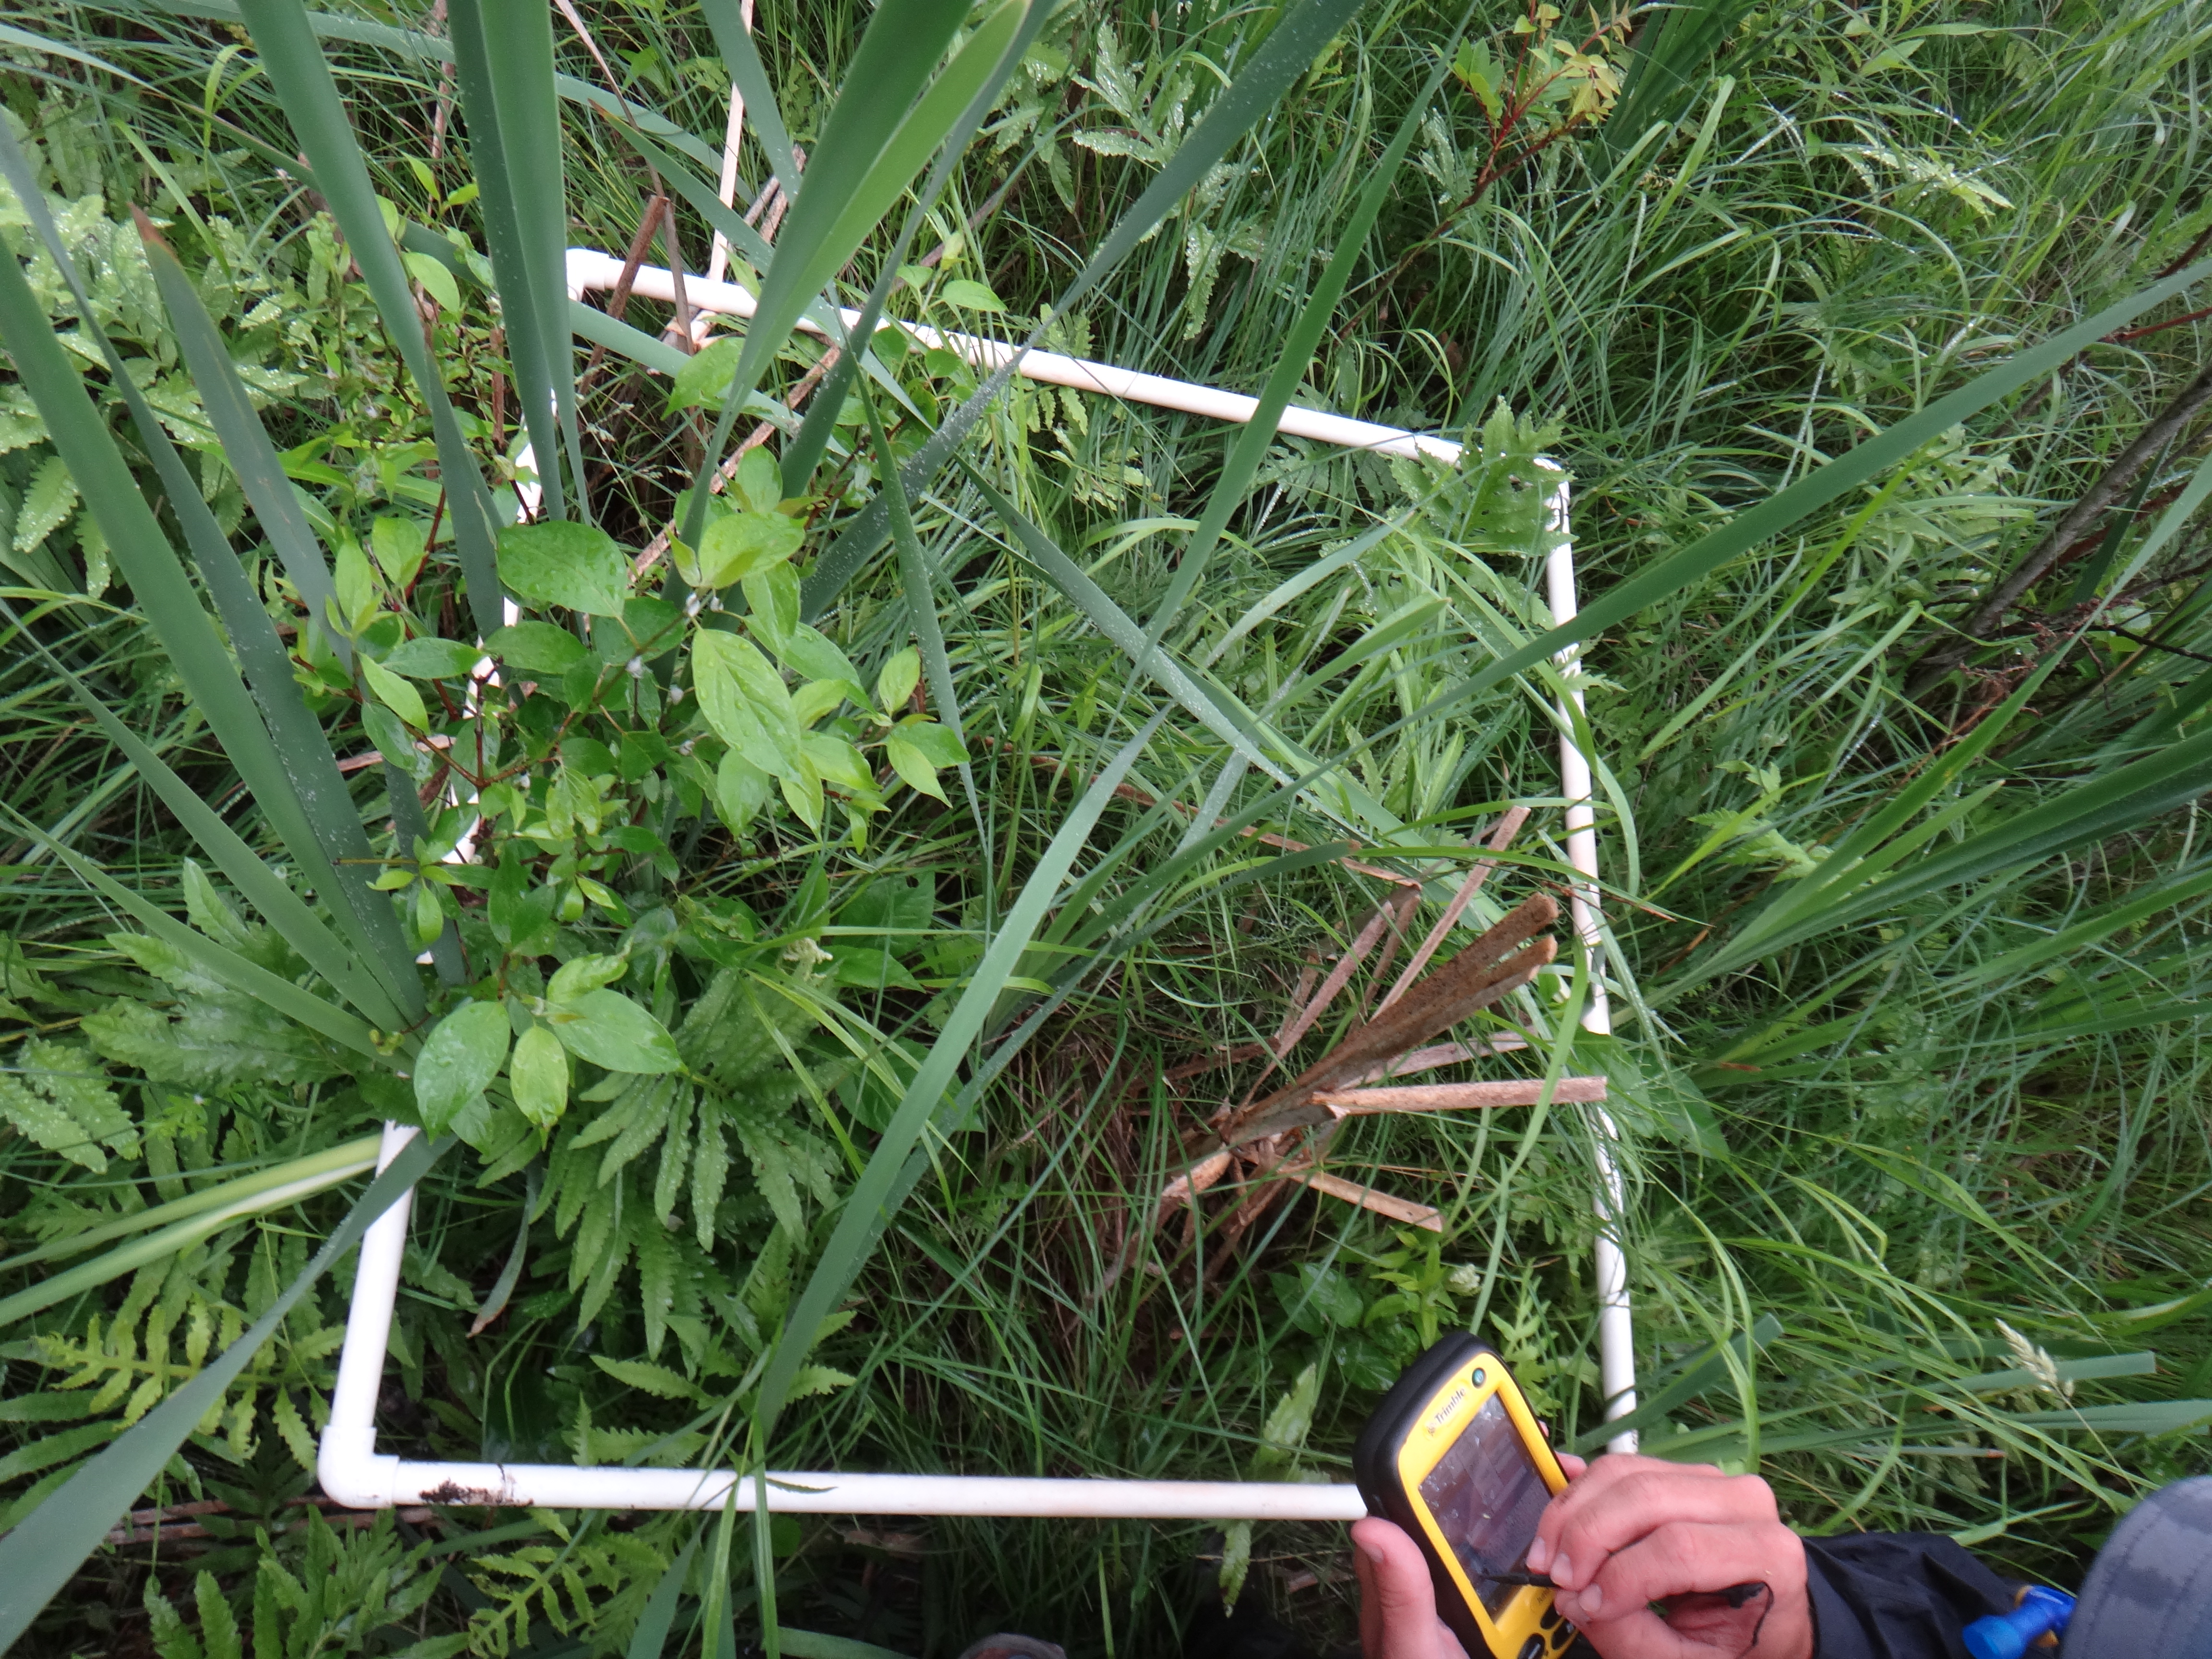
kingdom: Plantae
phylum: Tracheophyta
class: Liliopsida
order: Poales
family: Typhaceae
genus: Typha
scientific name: Typha latifolia
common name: Broadleaf cattail
